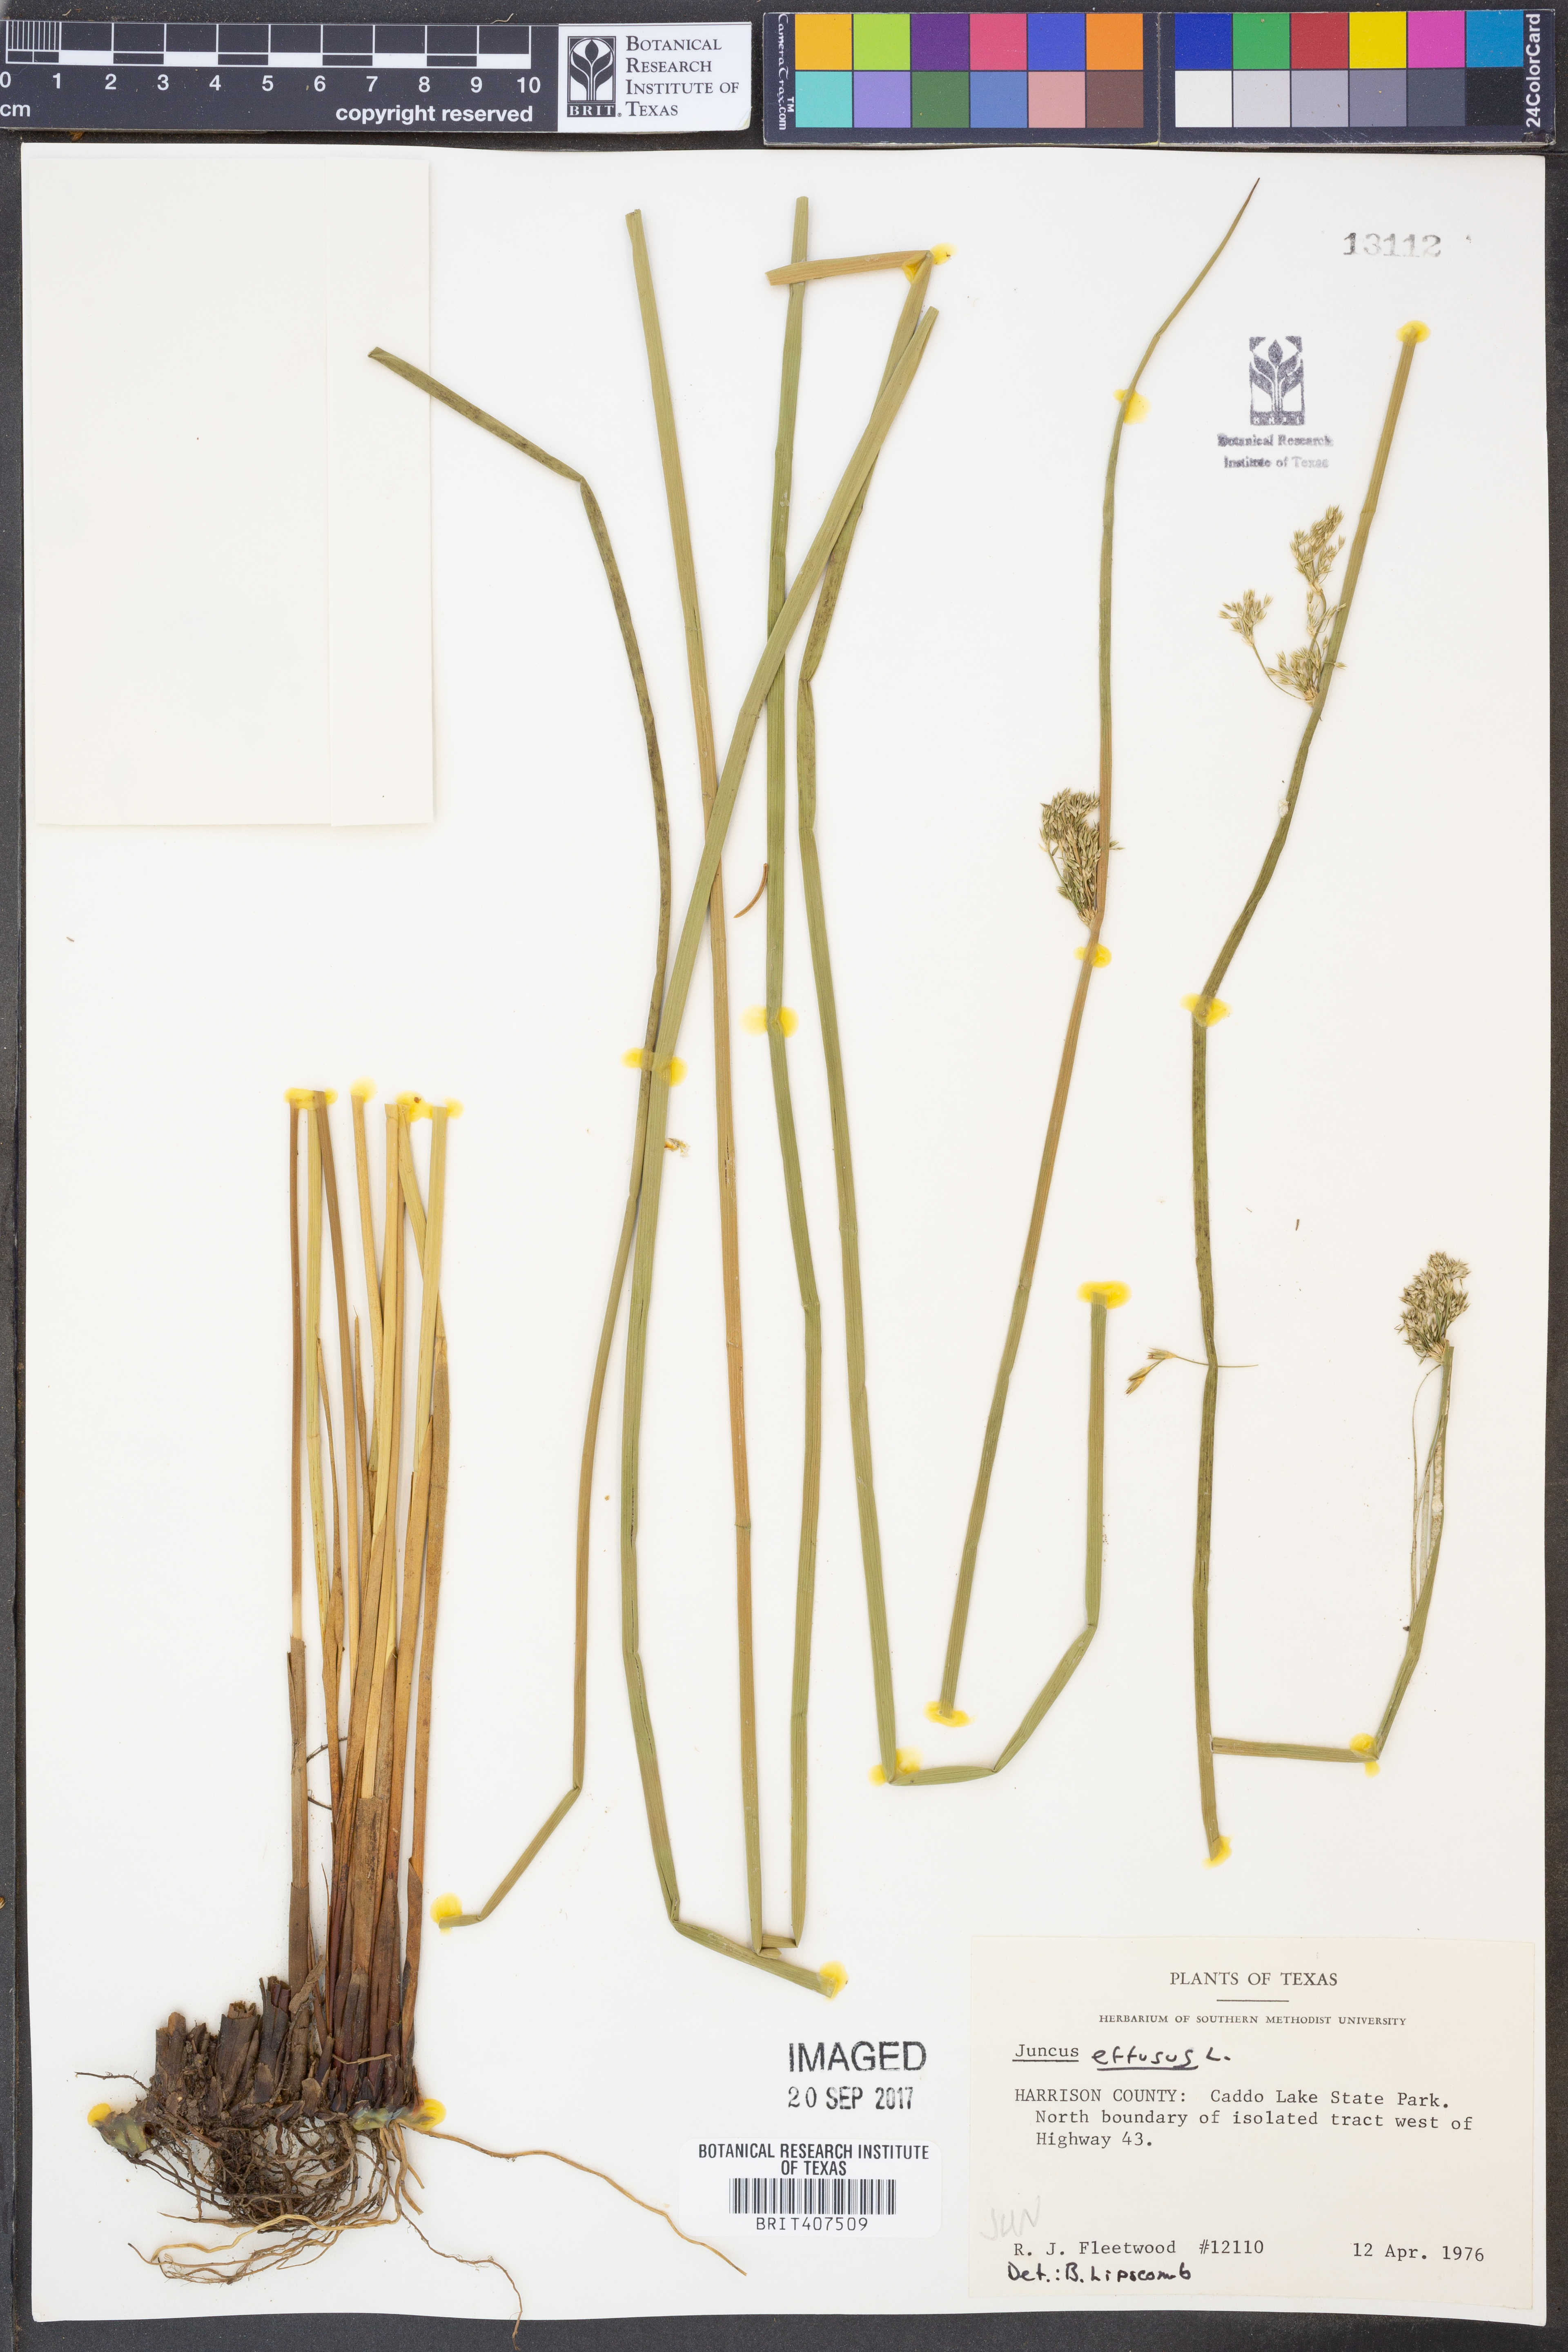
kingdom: Plantae
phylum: Tracheophyta
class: Liliopsida
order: Poales
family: Juncaceae
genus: Juncus
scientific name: Juncus effusus
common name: Soft rush
